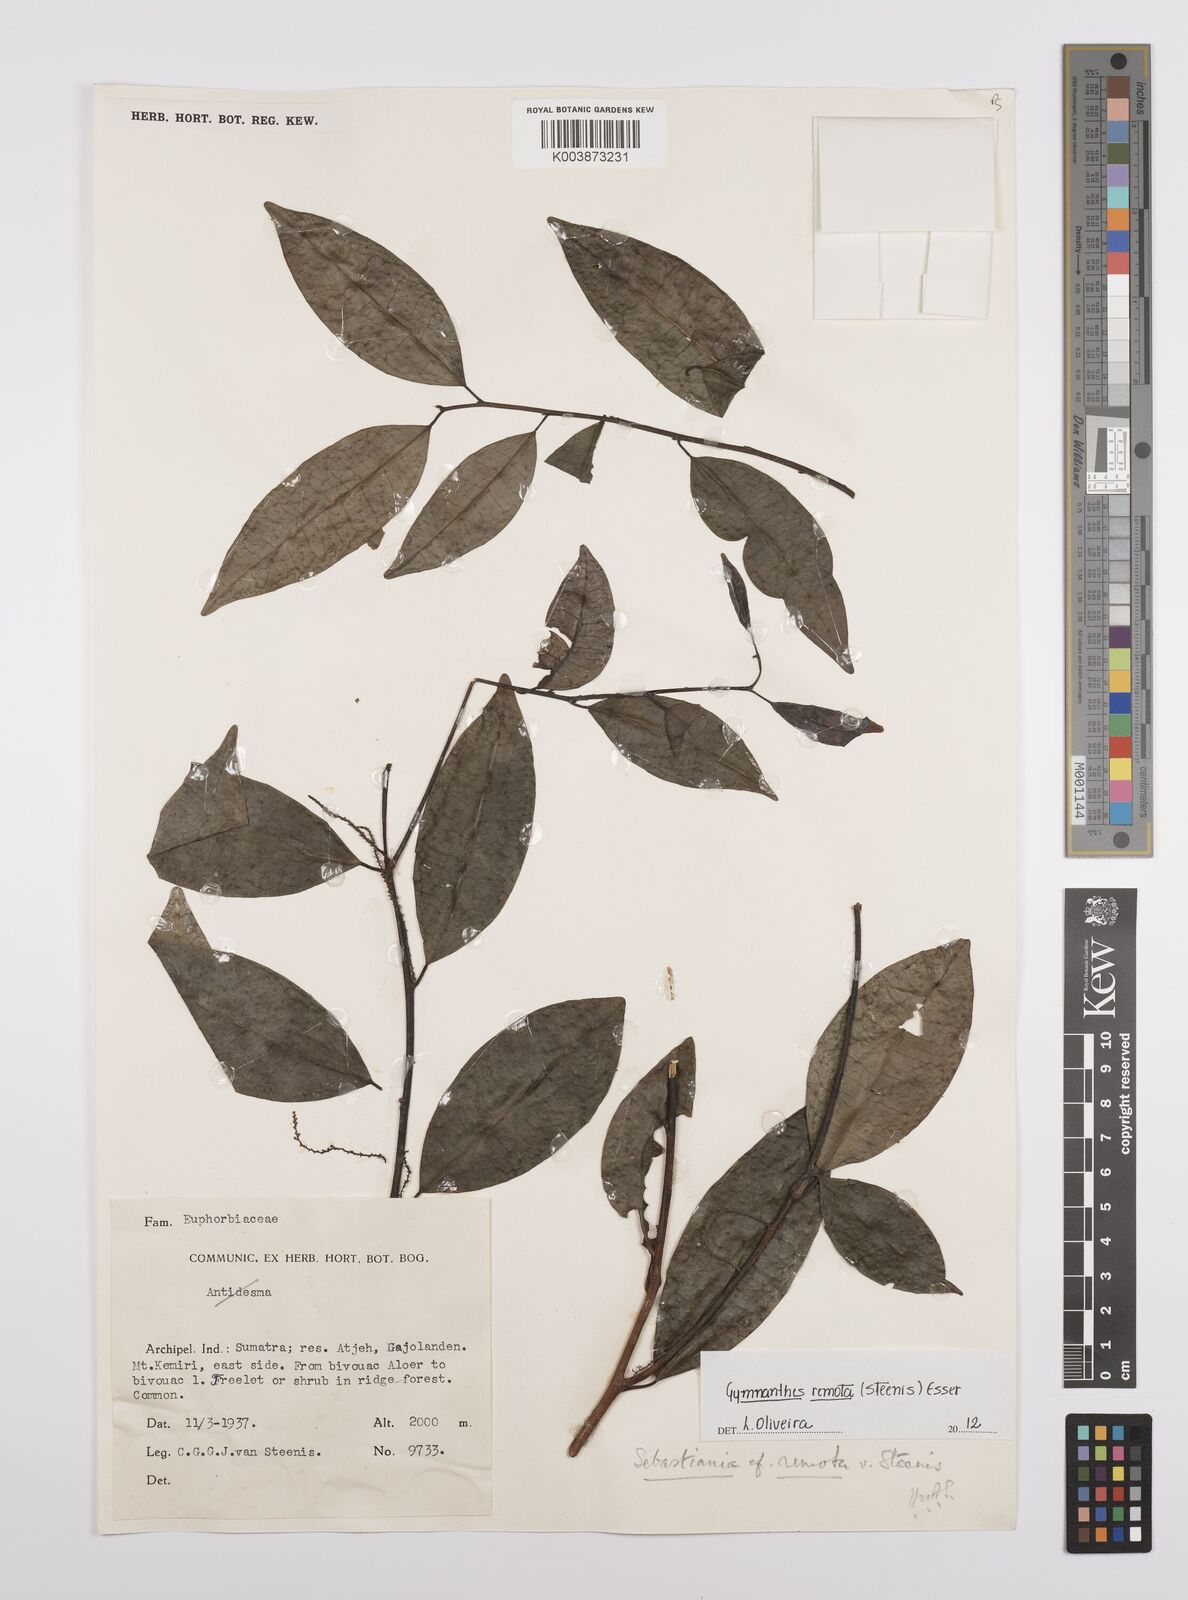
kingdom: Plantae
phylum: Tracheophyta
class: Magnoliopsida
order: Malpighiales
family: Euphorbiaceae
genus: Gymnanthes
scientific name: Gymnanthes remota
